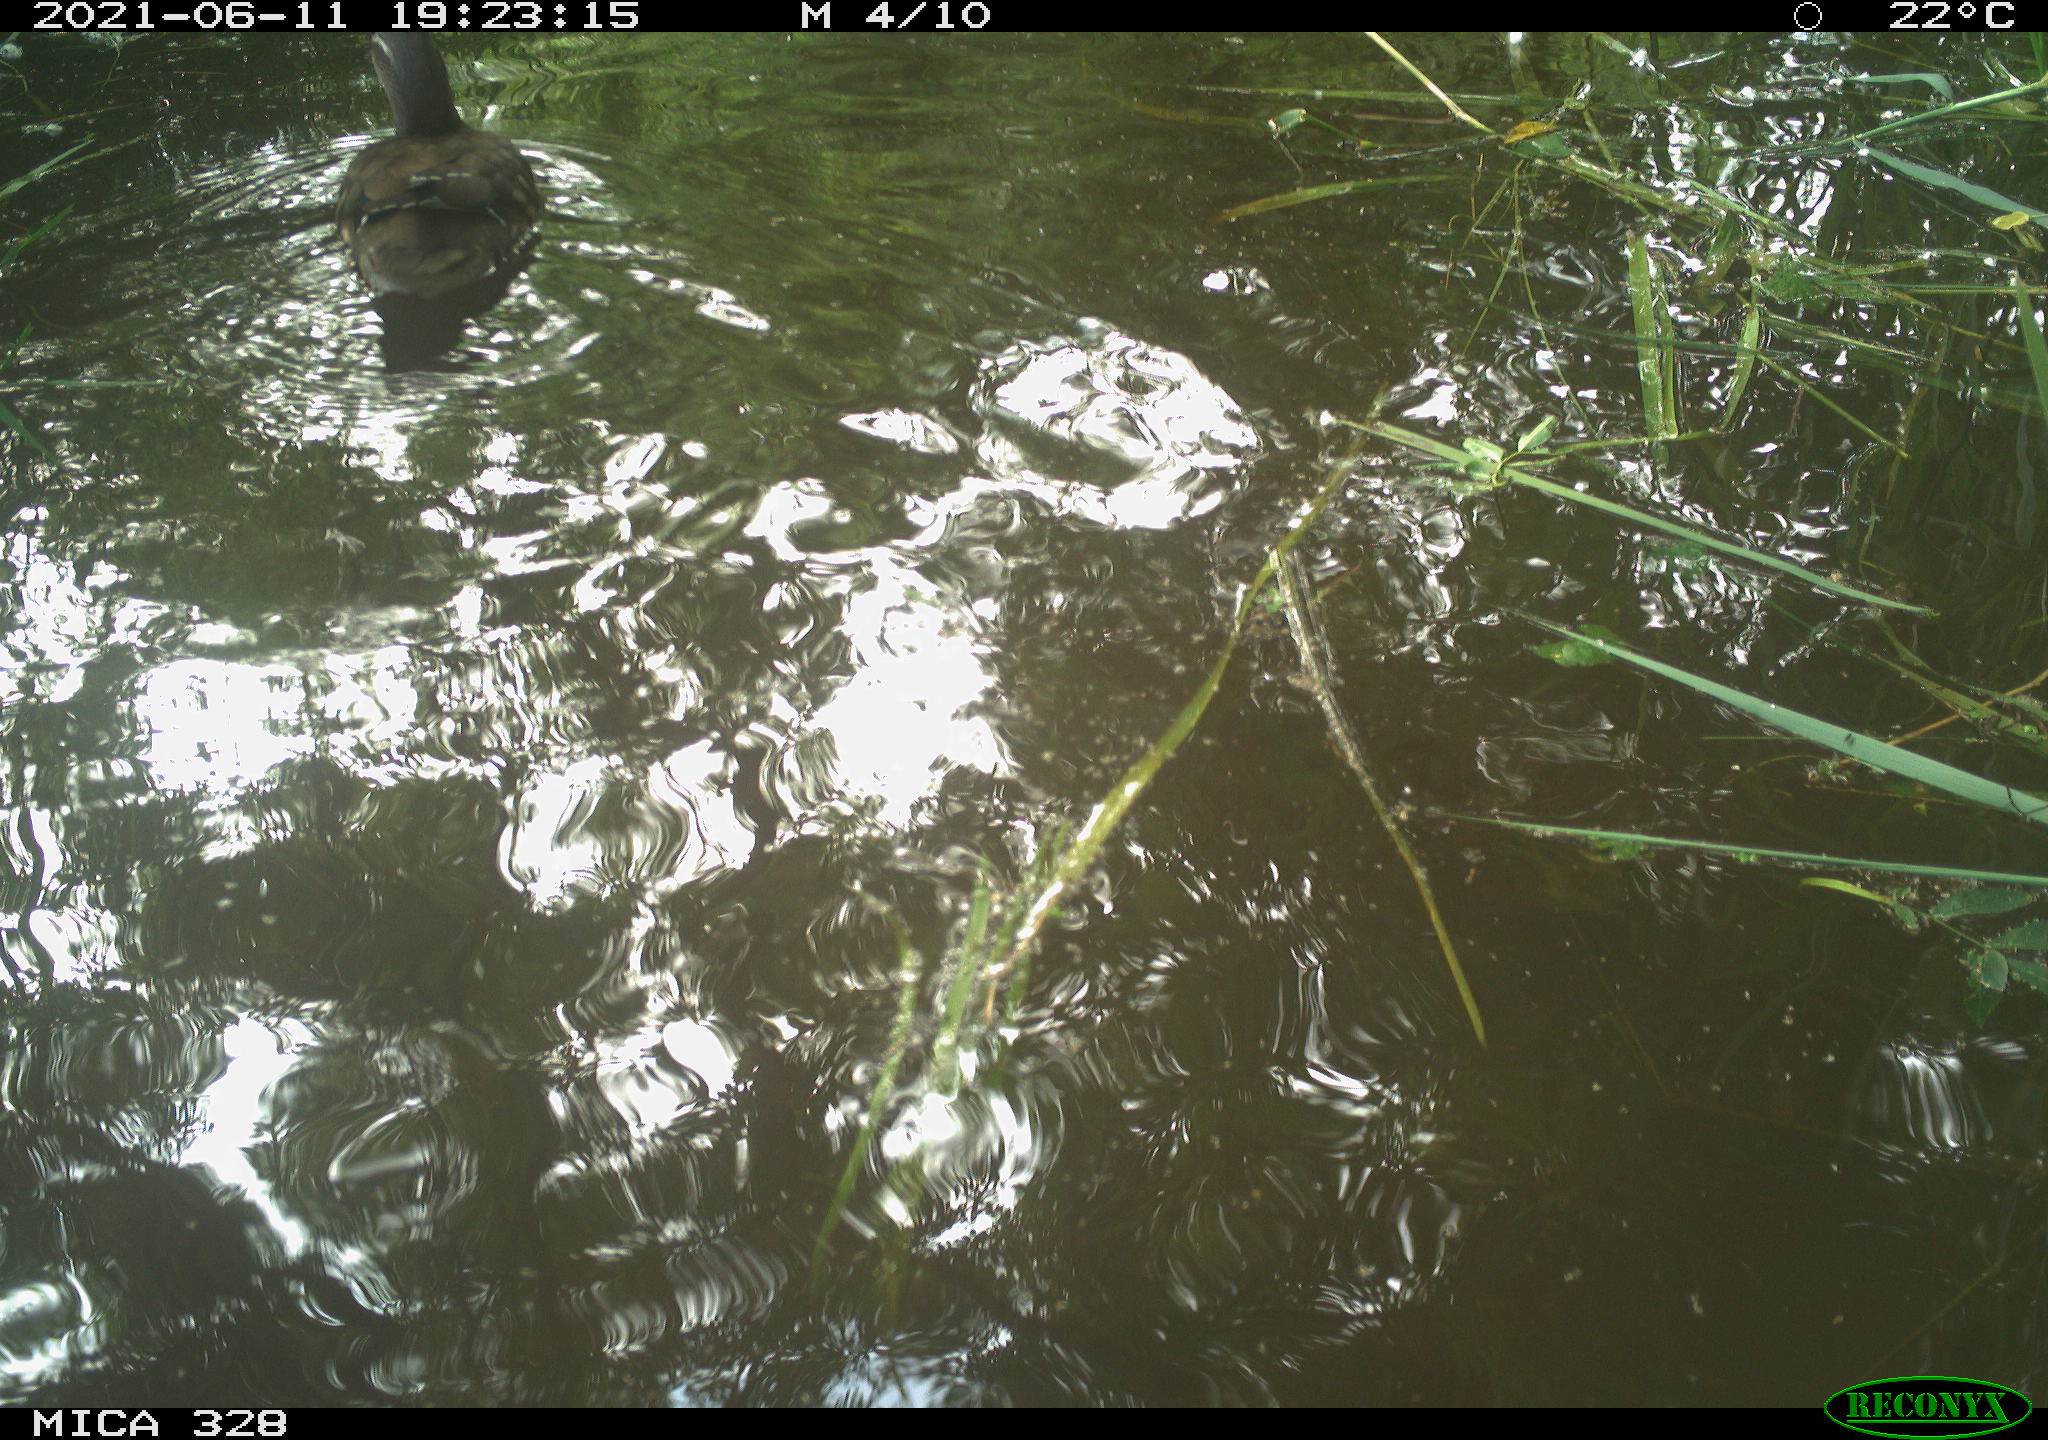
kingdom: Animalia
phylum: Chordata
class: Aves
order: Anseriformes
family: Anatidae
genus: Aix
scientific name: Aix galericulata
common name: Mandarin duck
